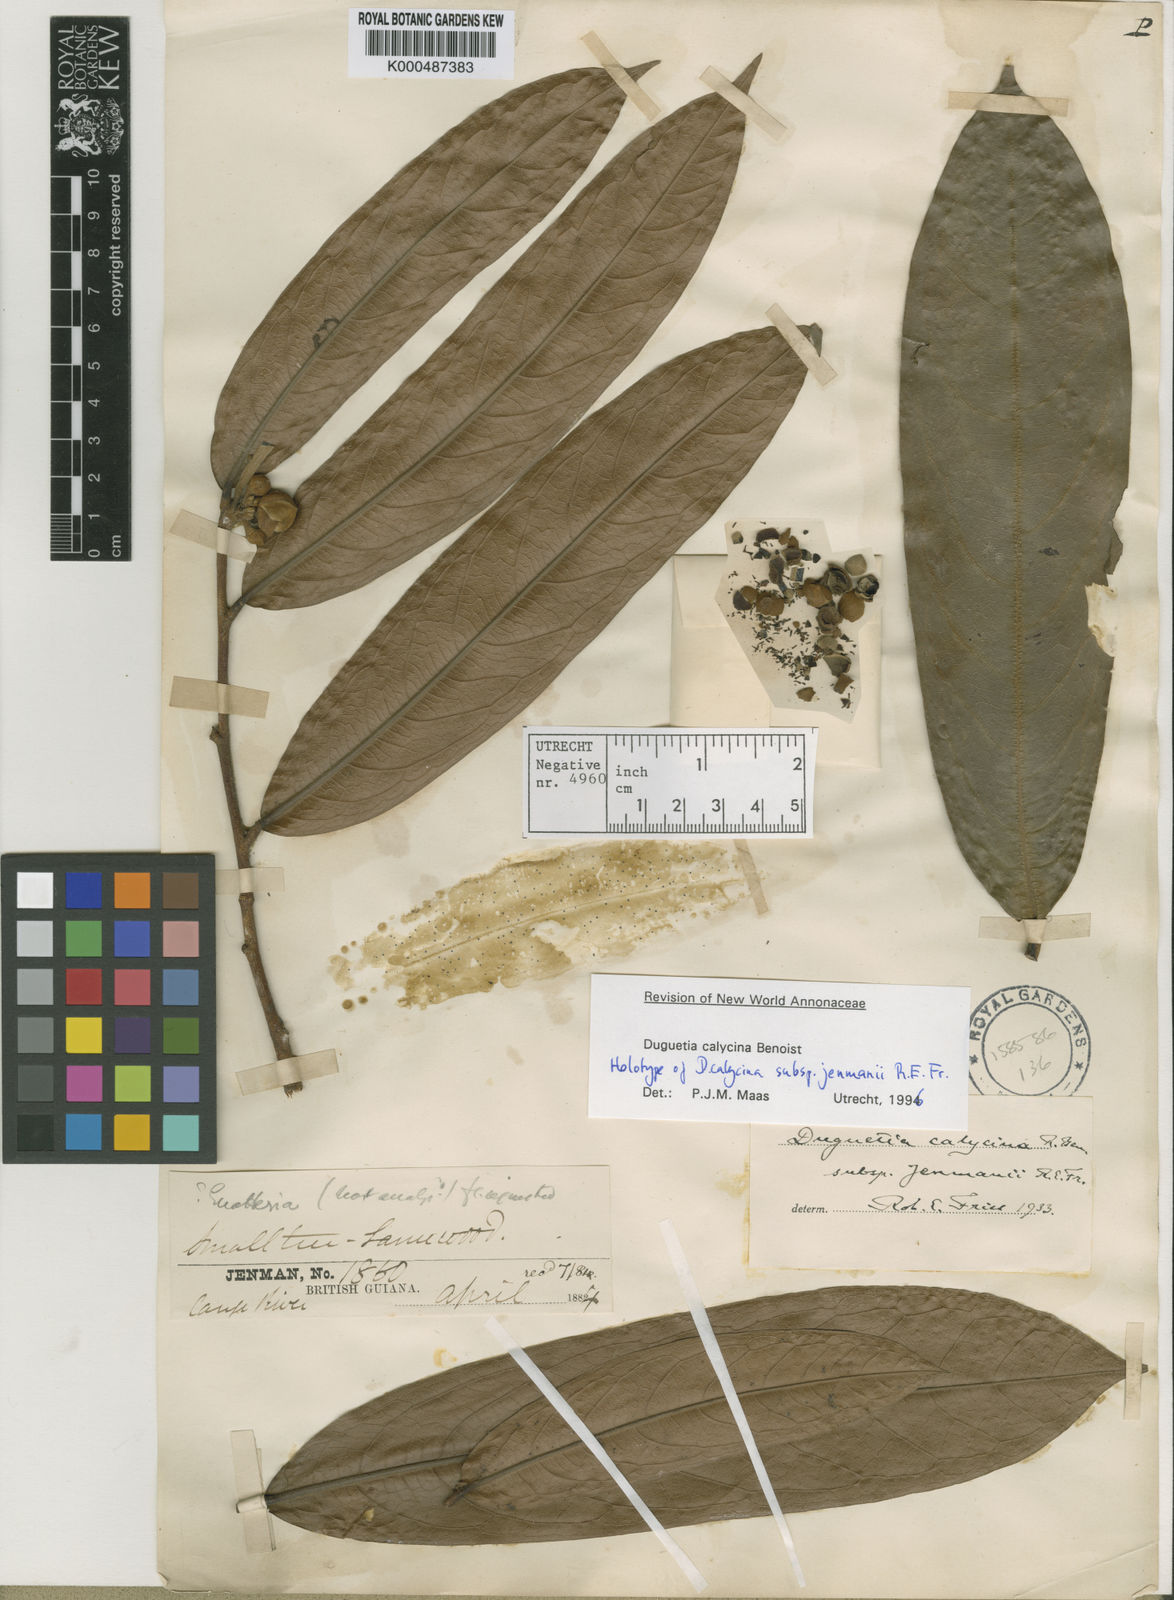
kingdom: Plantae
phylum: Tracheophyta
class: Magnoliopsida
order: Magnoliales
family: Annonaceae
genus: Duguetia
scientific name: Duguetia calycina
